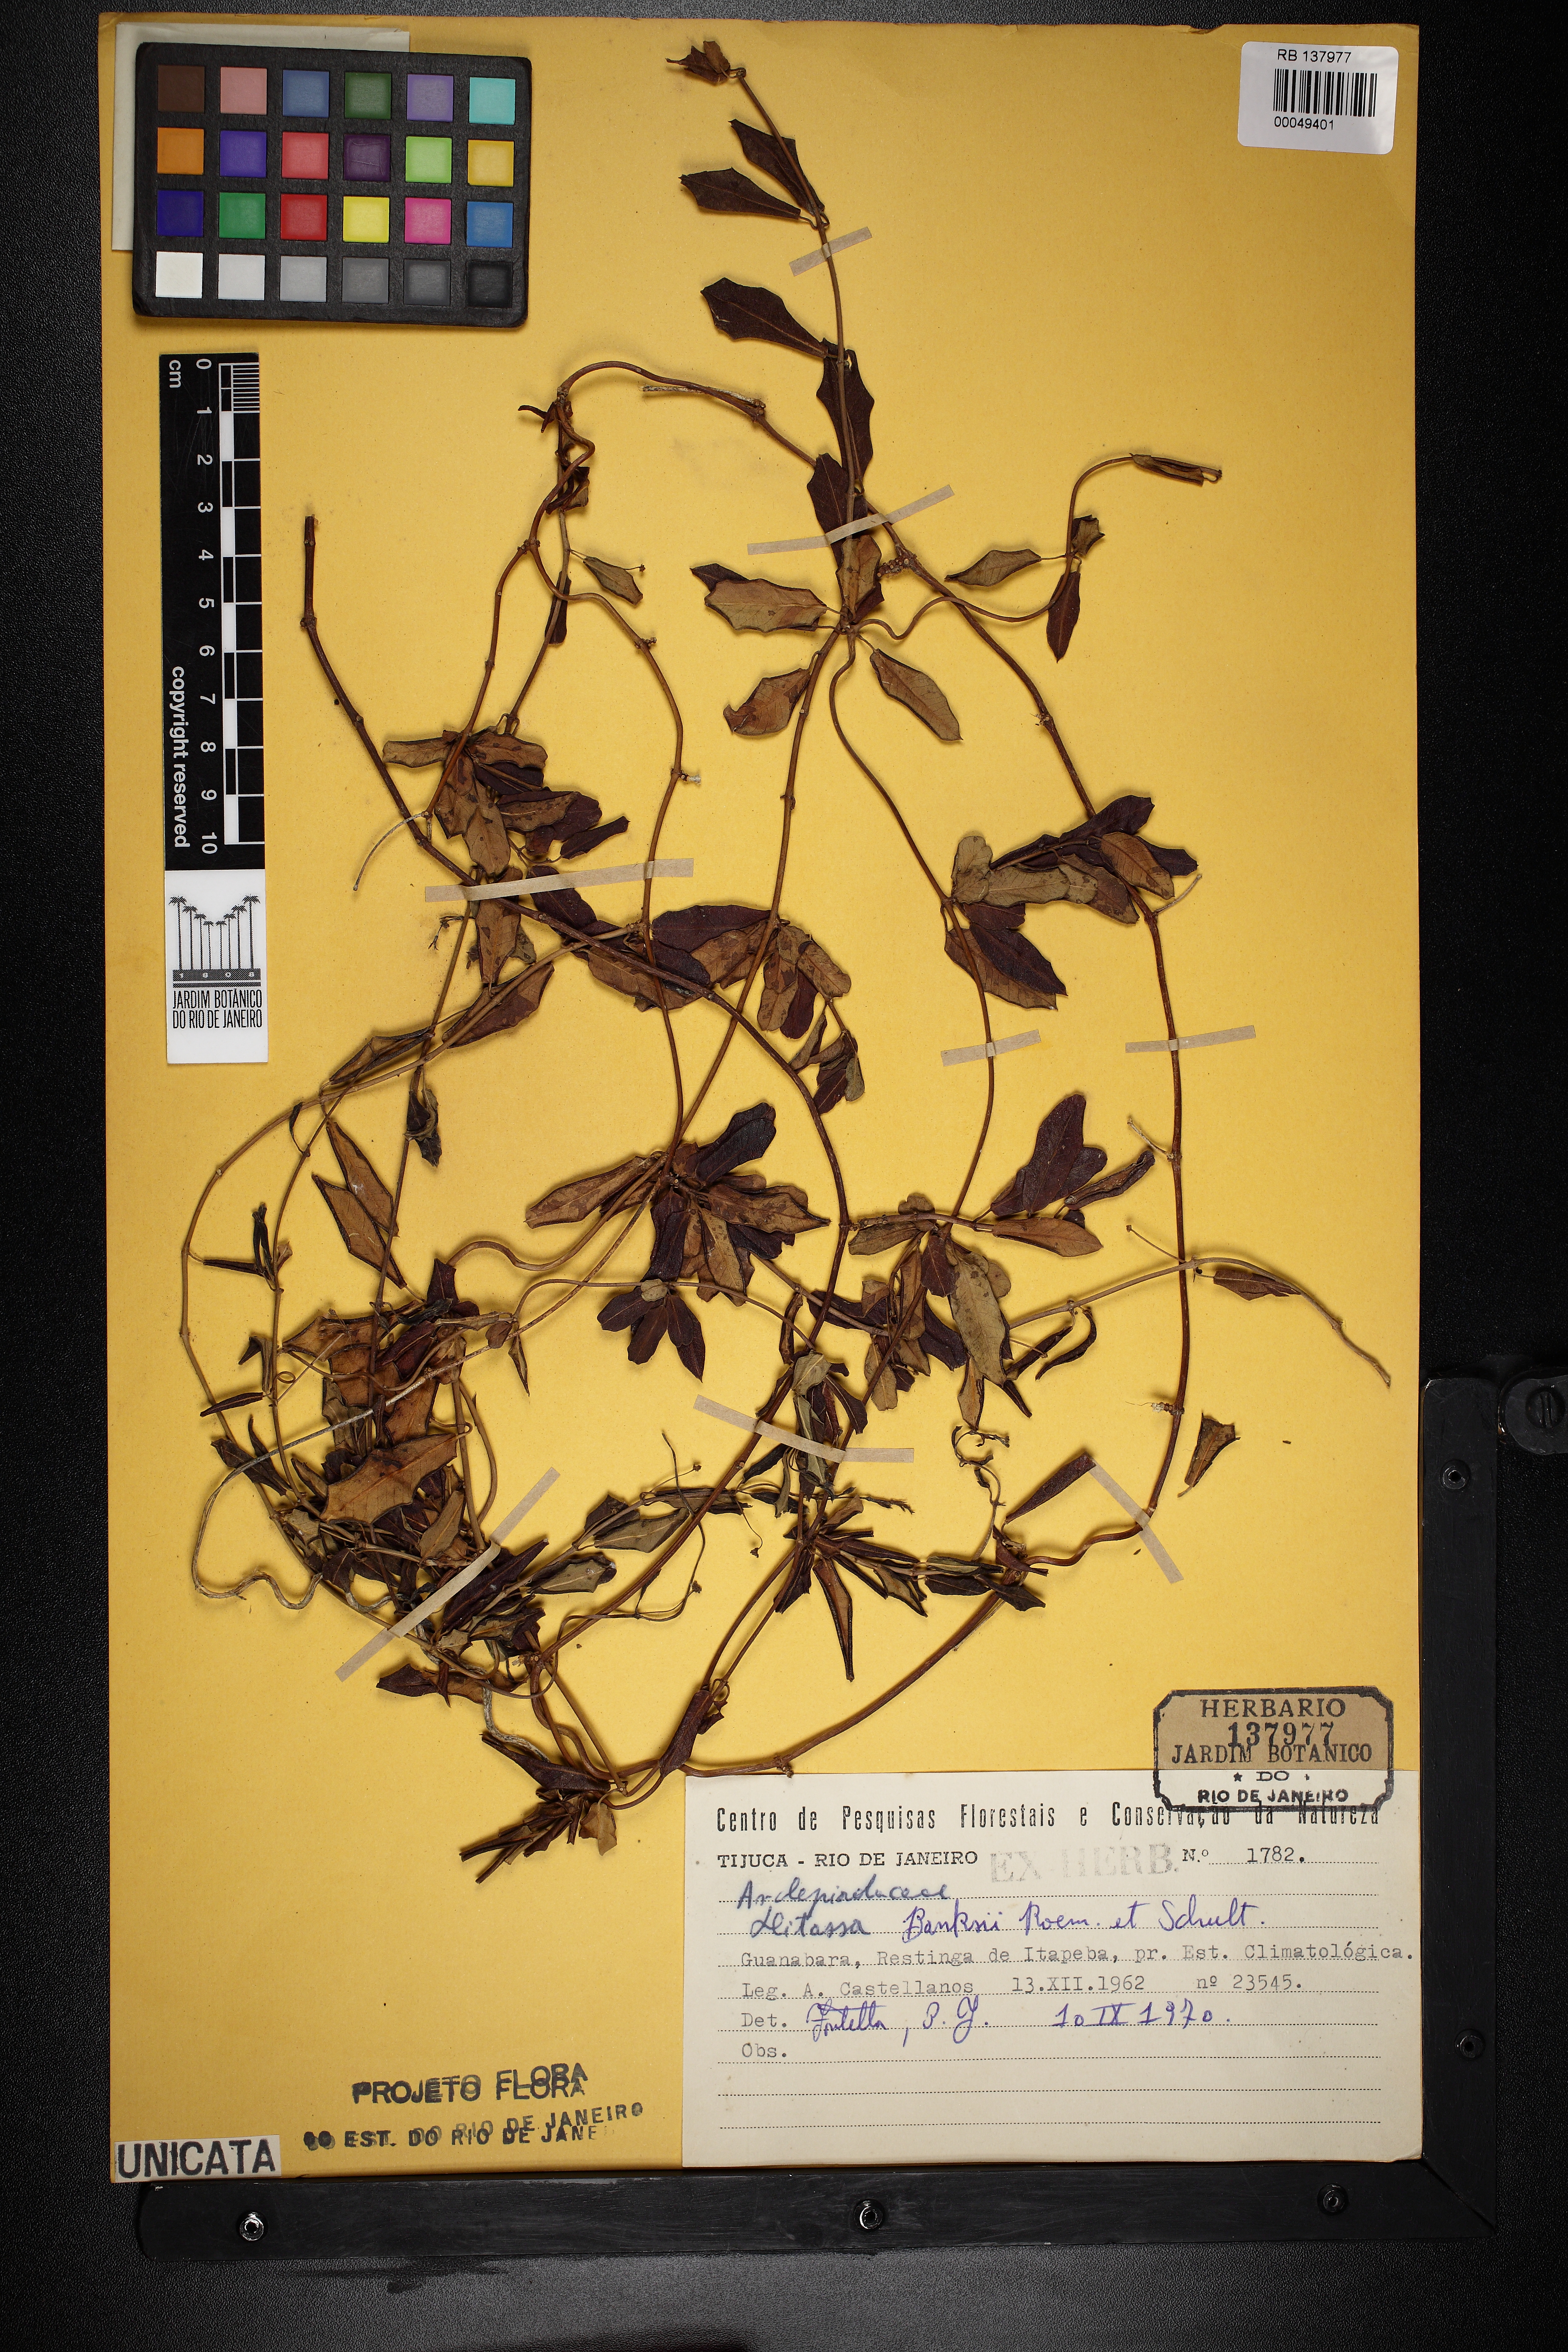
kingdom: Plantae
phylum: Tracheophyta
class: Magnoliopsida
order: Gentianales
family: Apocynaceae
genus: Ditassa
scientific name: Ditassa banksii
